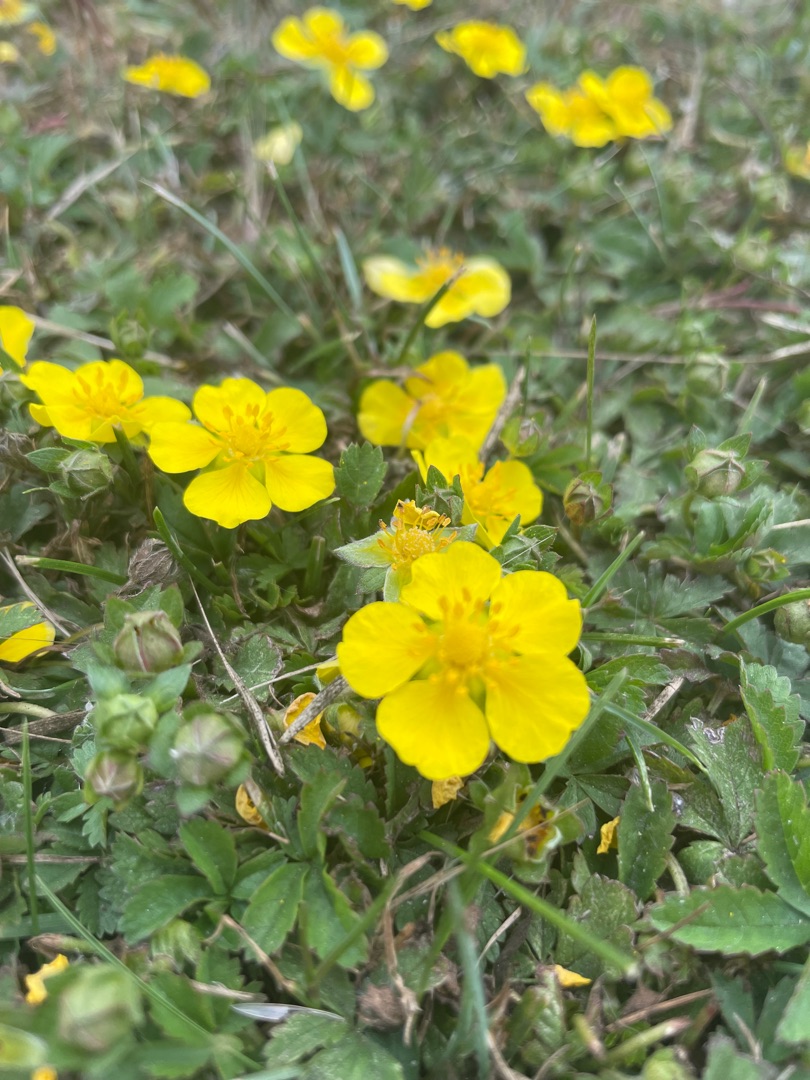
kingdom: Plantae
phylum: Tracheophyta
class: Magnoliopsida
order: Rosales
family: Rosaceae
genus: Potentilla
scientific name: Potentilla reptans
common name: Krybende potentil
